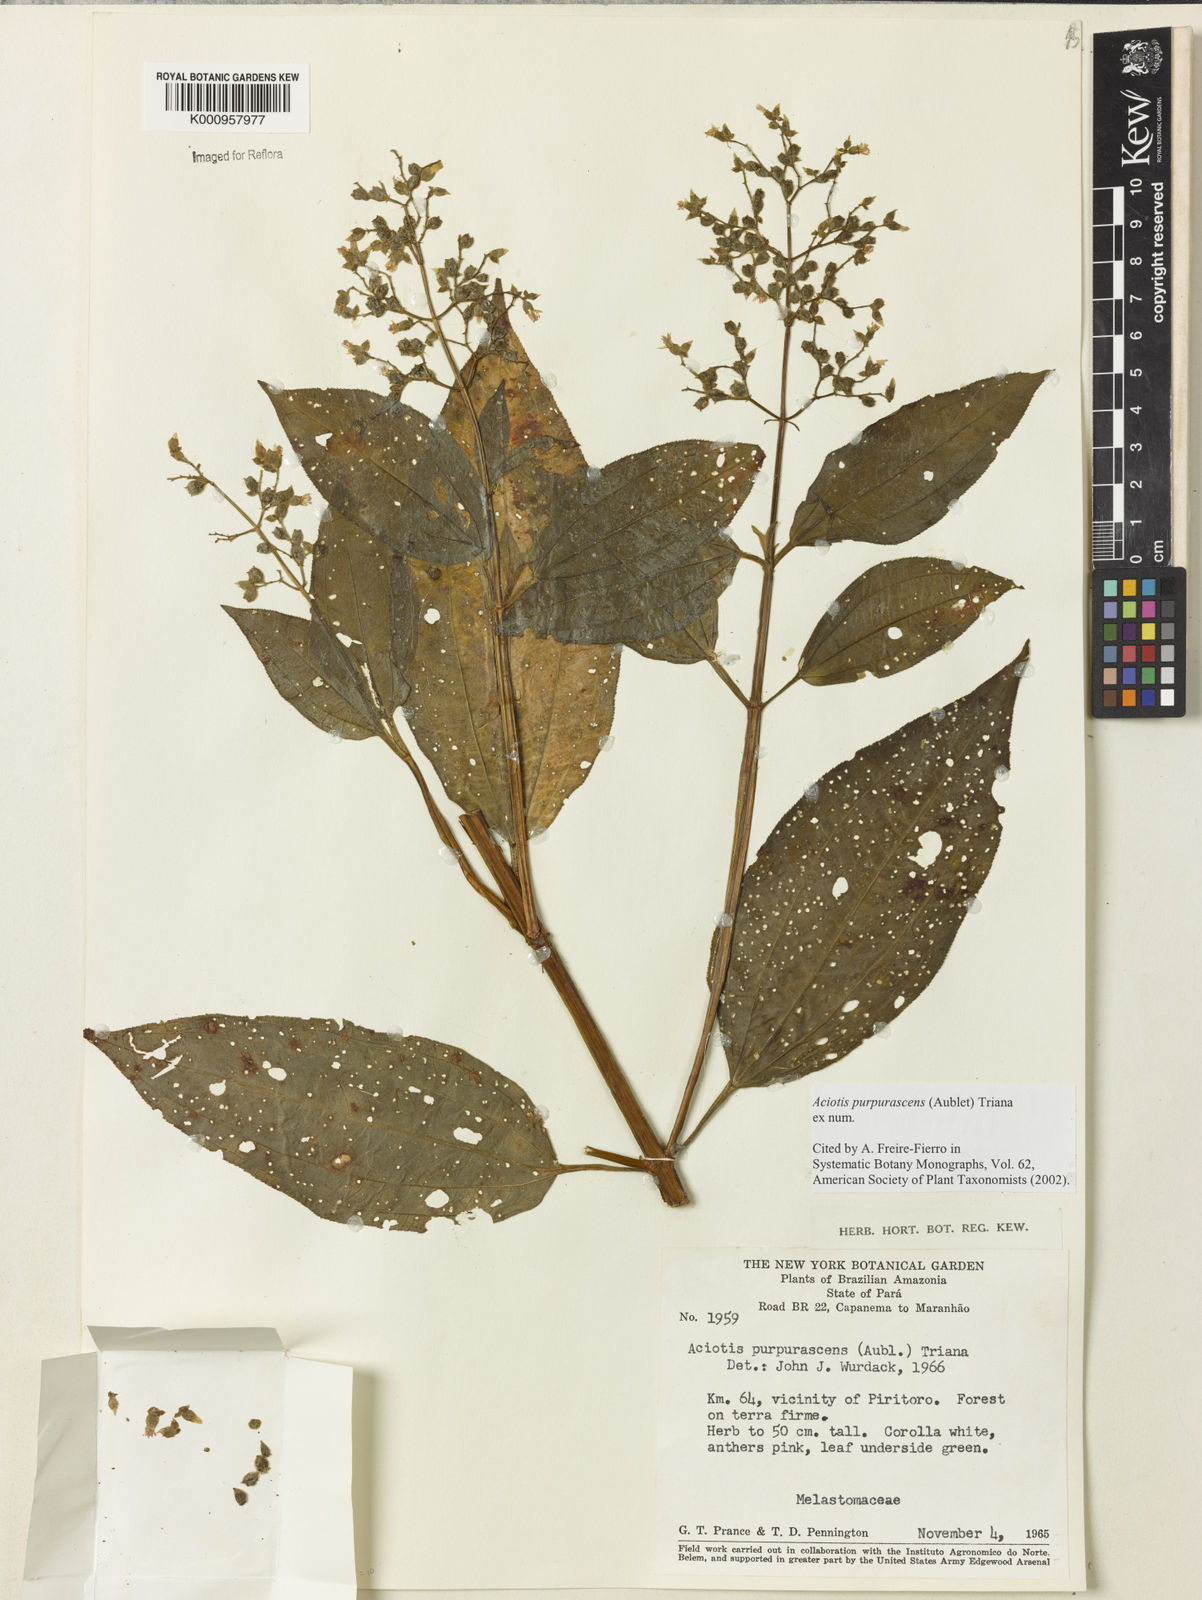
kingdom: Plantae
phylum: Tracheophyta
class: Magnoliopsida
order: Myrtales
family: Melastomataceae
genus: Aciotis
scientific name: Aciotis purpurascens
